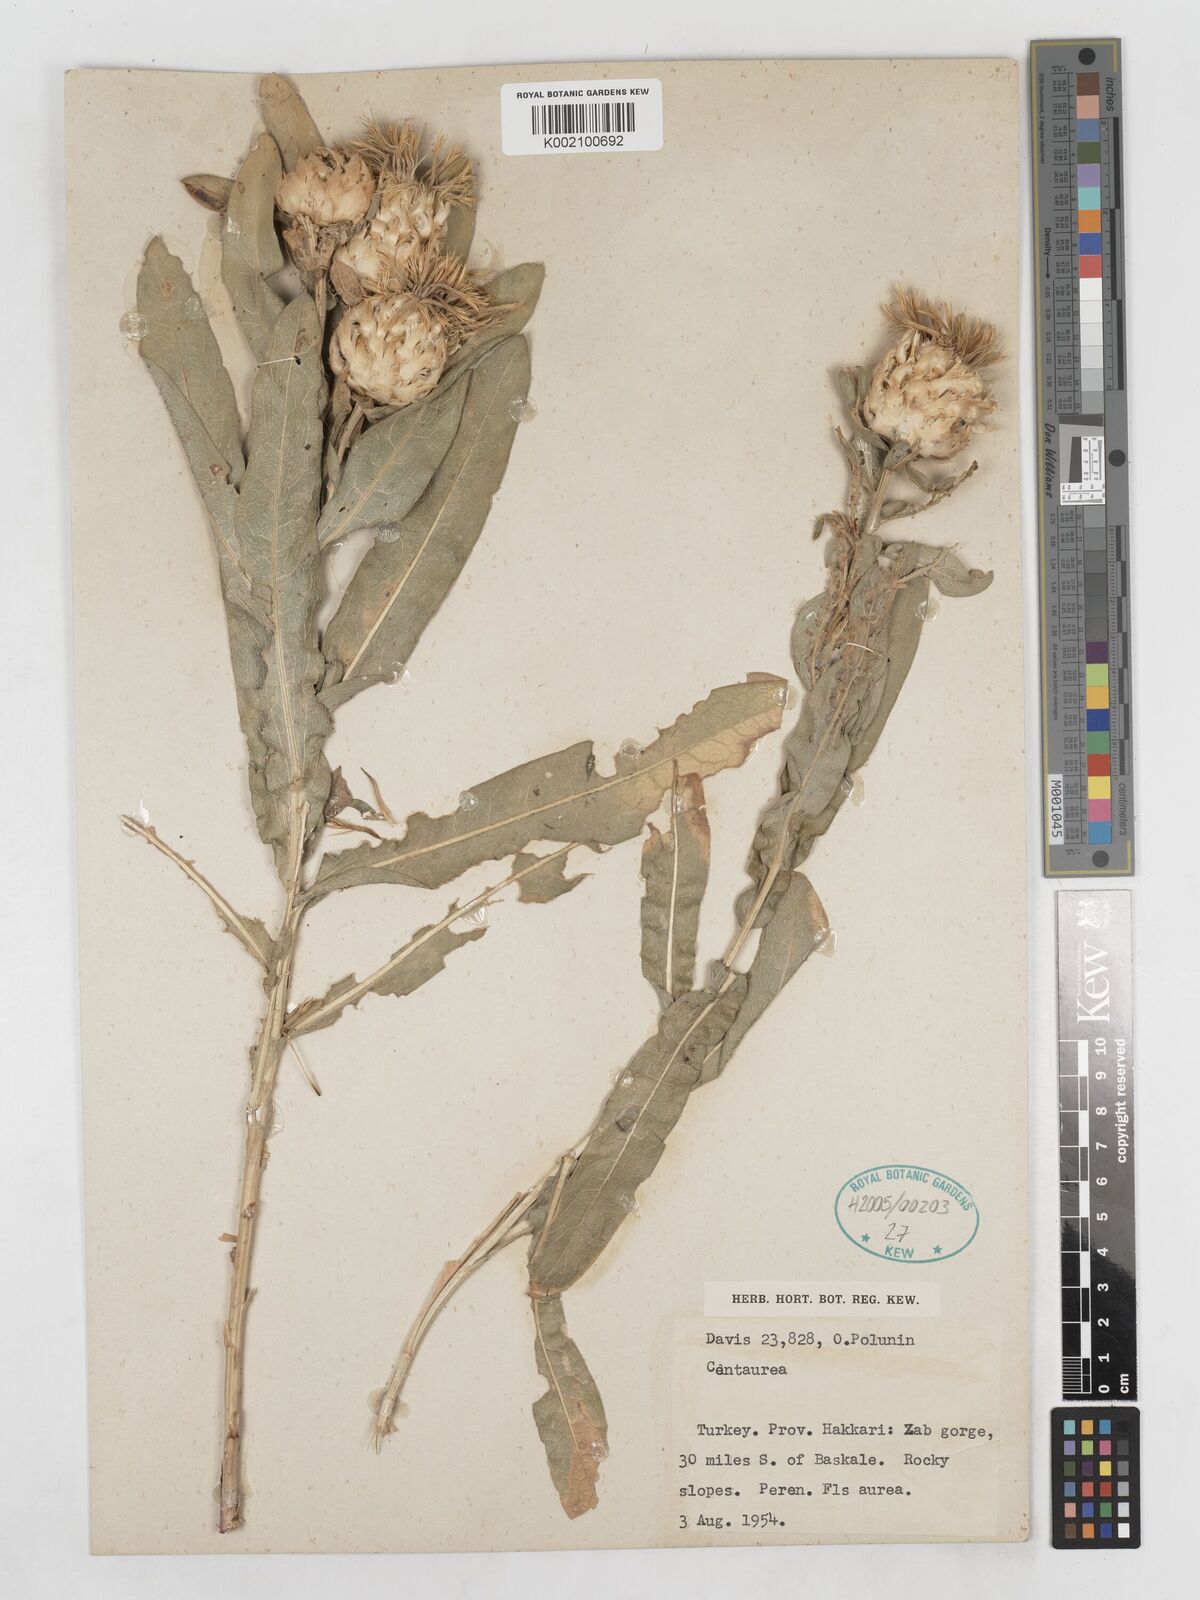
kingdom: Plantae
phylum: Tracheophyta
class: Magnoliopsida
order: Asterales
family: Asteraceae
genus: Centaurea
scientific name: Centaurea saligna
